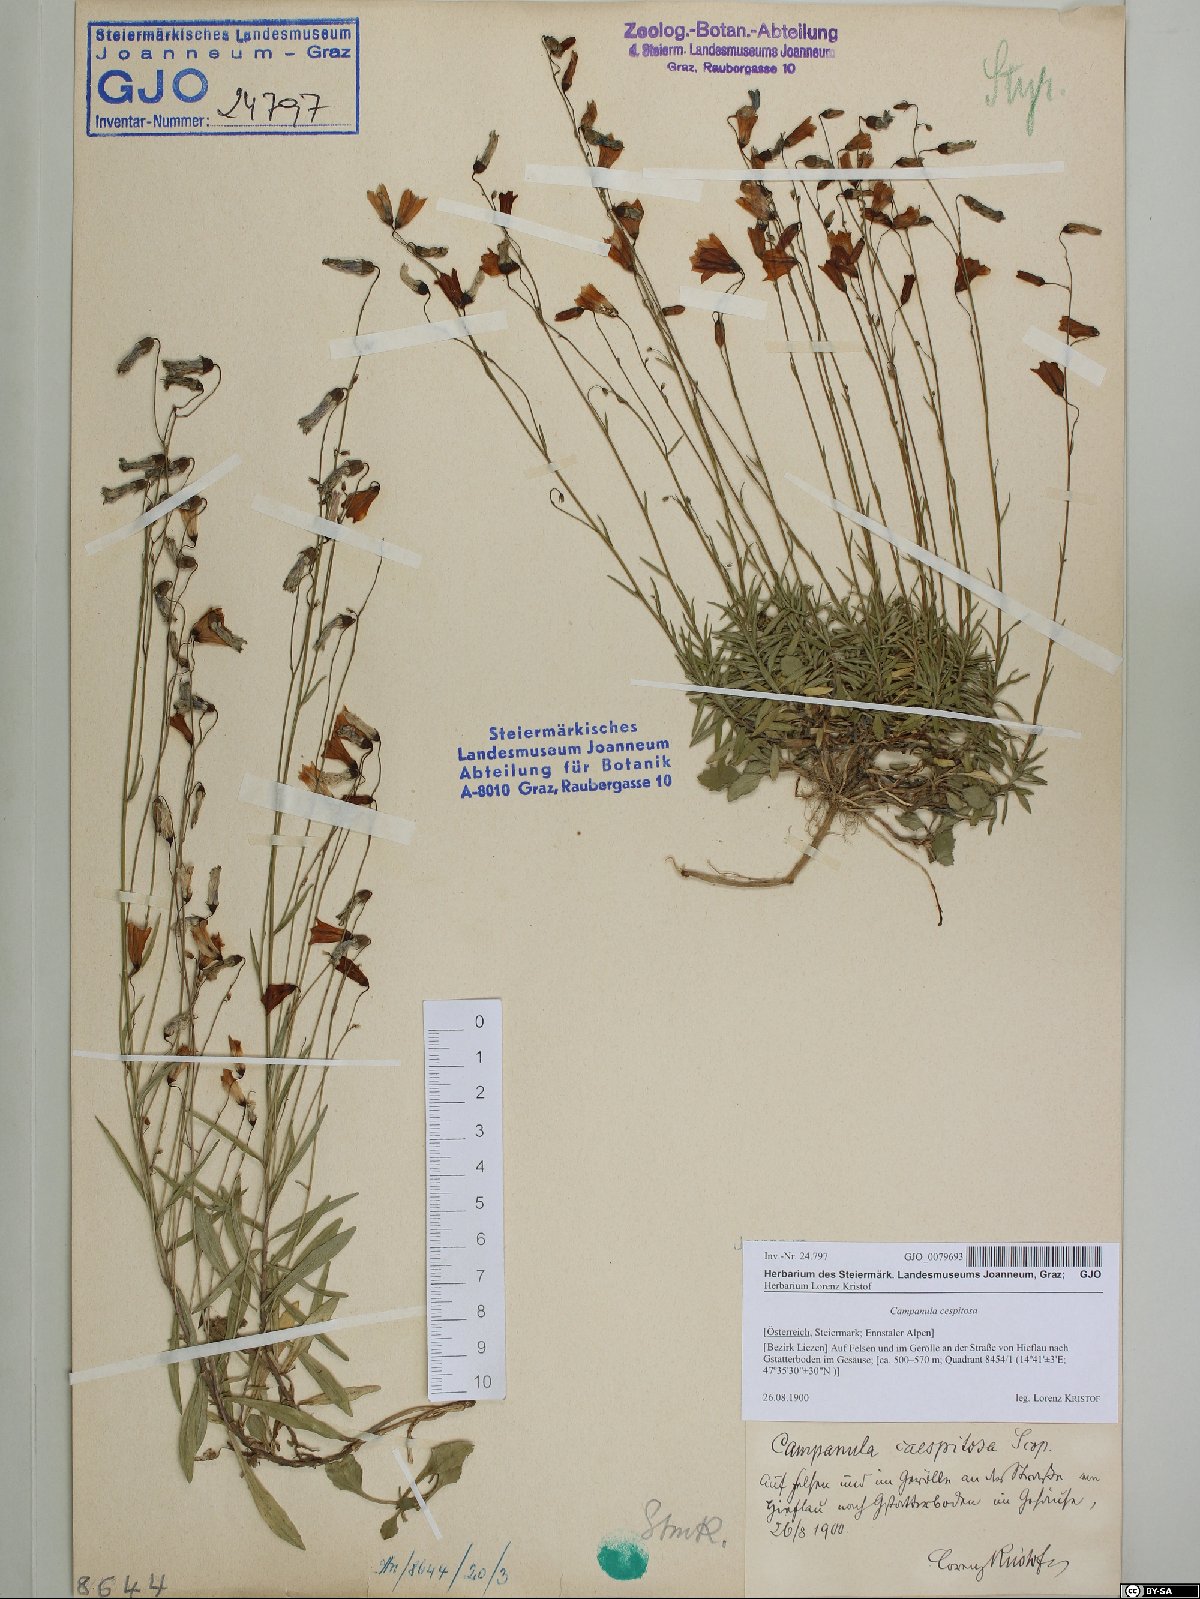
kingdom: Plantae
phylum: Tracheophyta
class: Magnoliopsida
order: Asterales
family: Campanulaceae
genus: Campanula
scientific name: Campanula cespitosa
